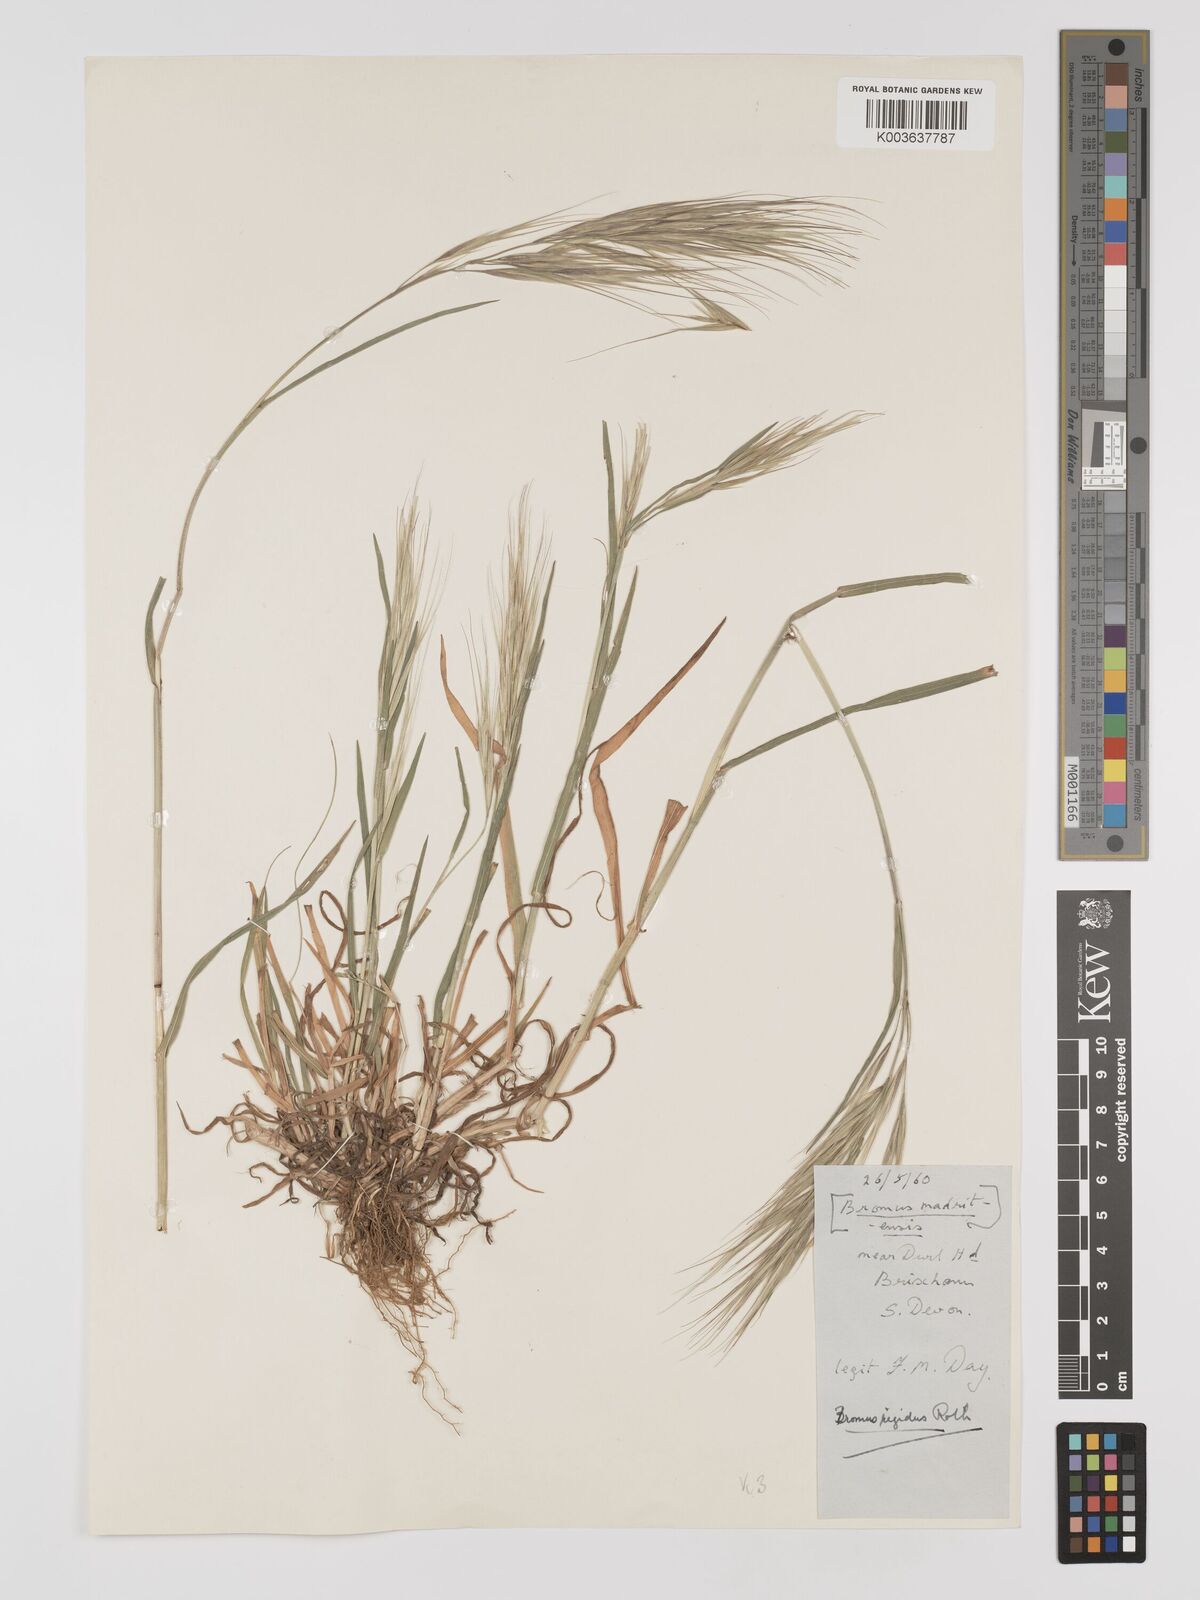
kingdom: Plantae
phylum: Tracheophyta
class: Liliopsida
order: Poales
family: Poaceae
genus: Bromus
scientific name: Bromus
